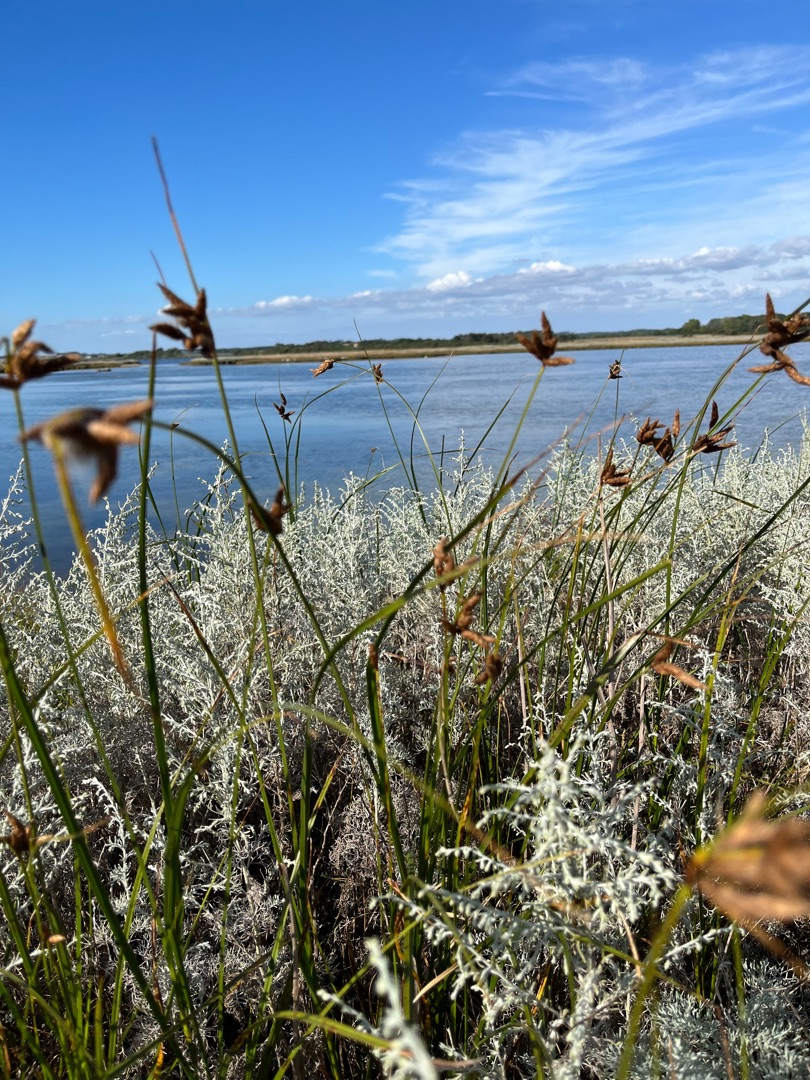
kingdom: Plantae
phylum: Tracheophyta
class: Liliopsida
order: Poales
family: Cyperaceae
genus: Bolboschoenus
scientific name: Bolboschoenus maritimus
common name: Strand-kogleaks
